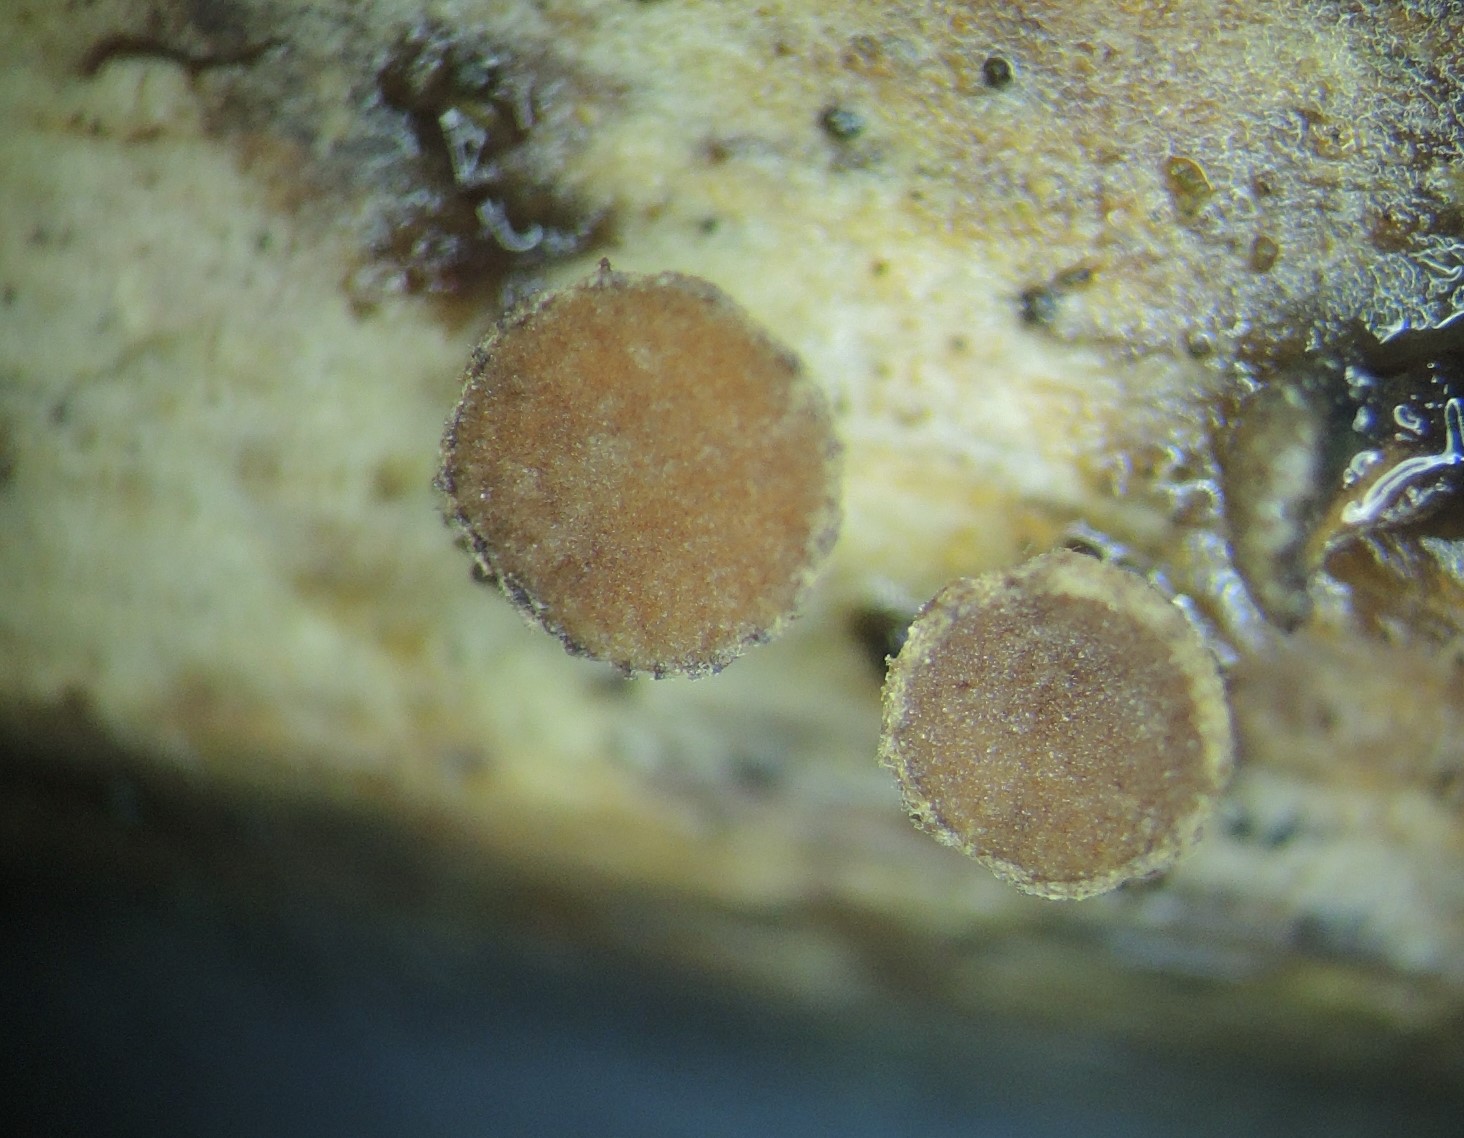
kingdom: Fungi
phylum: Ascomycota
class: Leotiomycetes
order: Helotiales
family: Rutstroemiaceae
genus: Rutstroemia
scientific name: Rutstroemia
